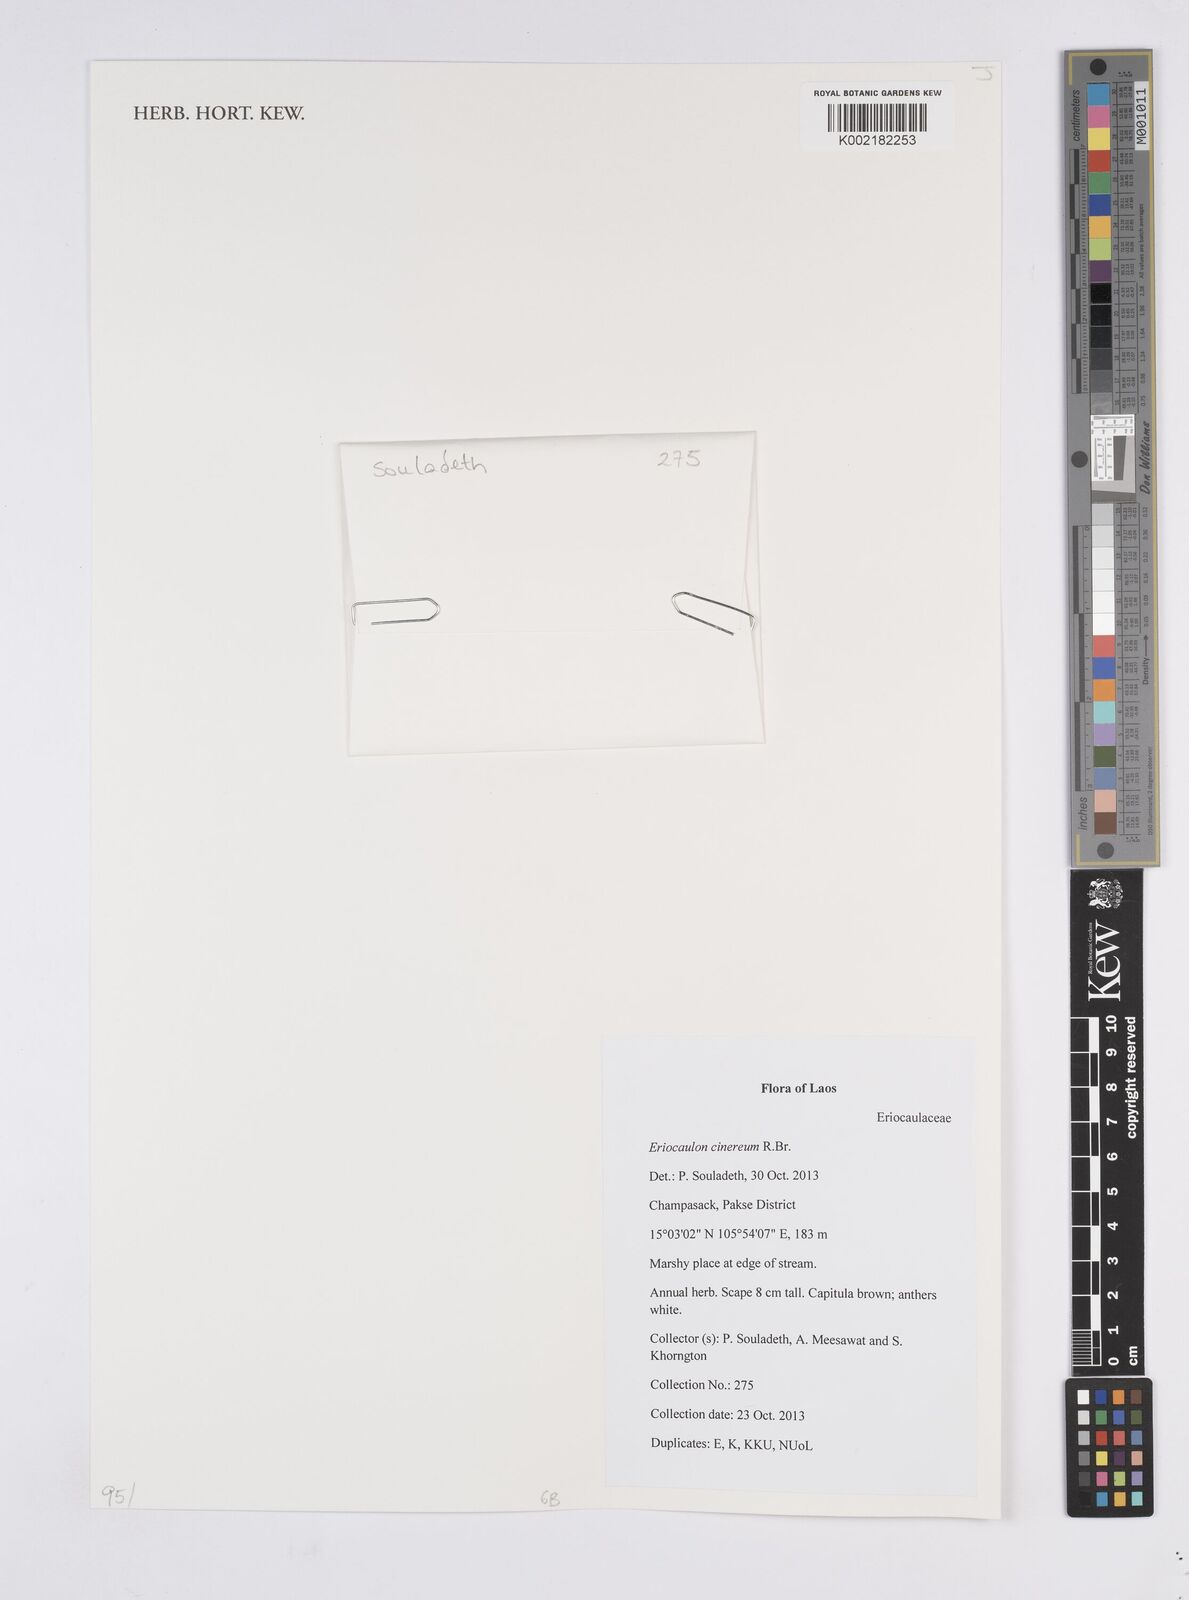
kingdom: Plantae
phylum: Tracheophyta
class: Liliopsida
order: Poales
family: Eriocaulaceae
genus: Eriocaulon
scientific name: Eriocaulon cinereum
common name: Ashy pipewort
